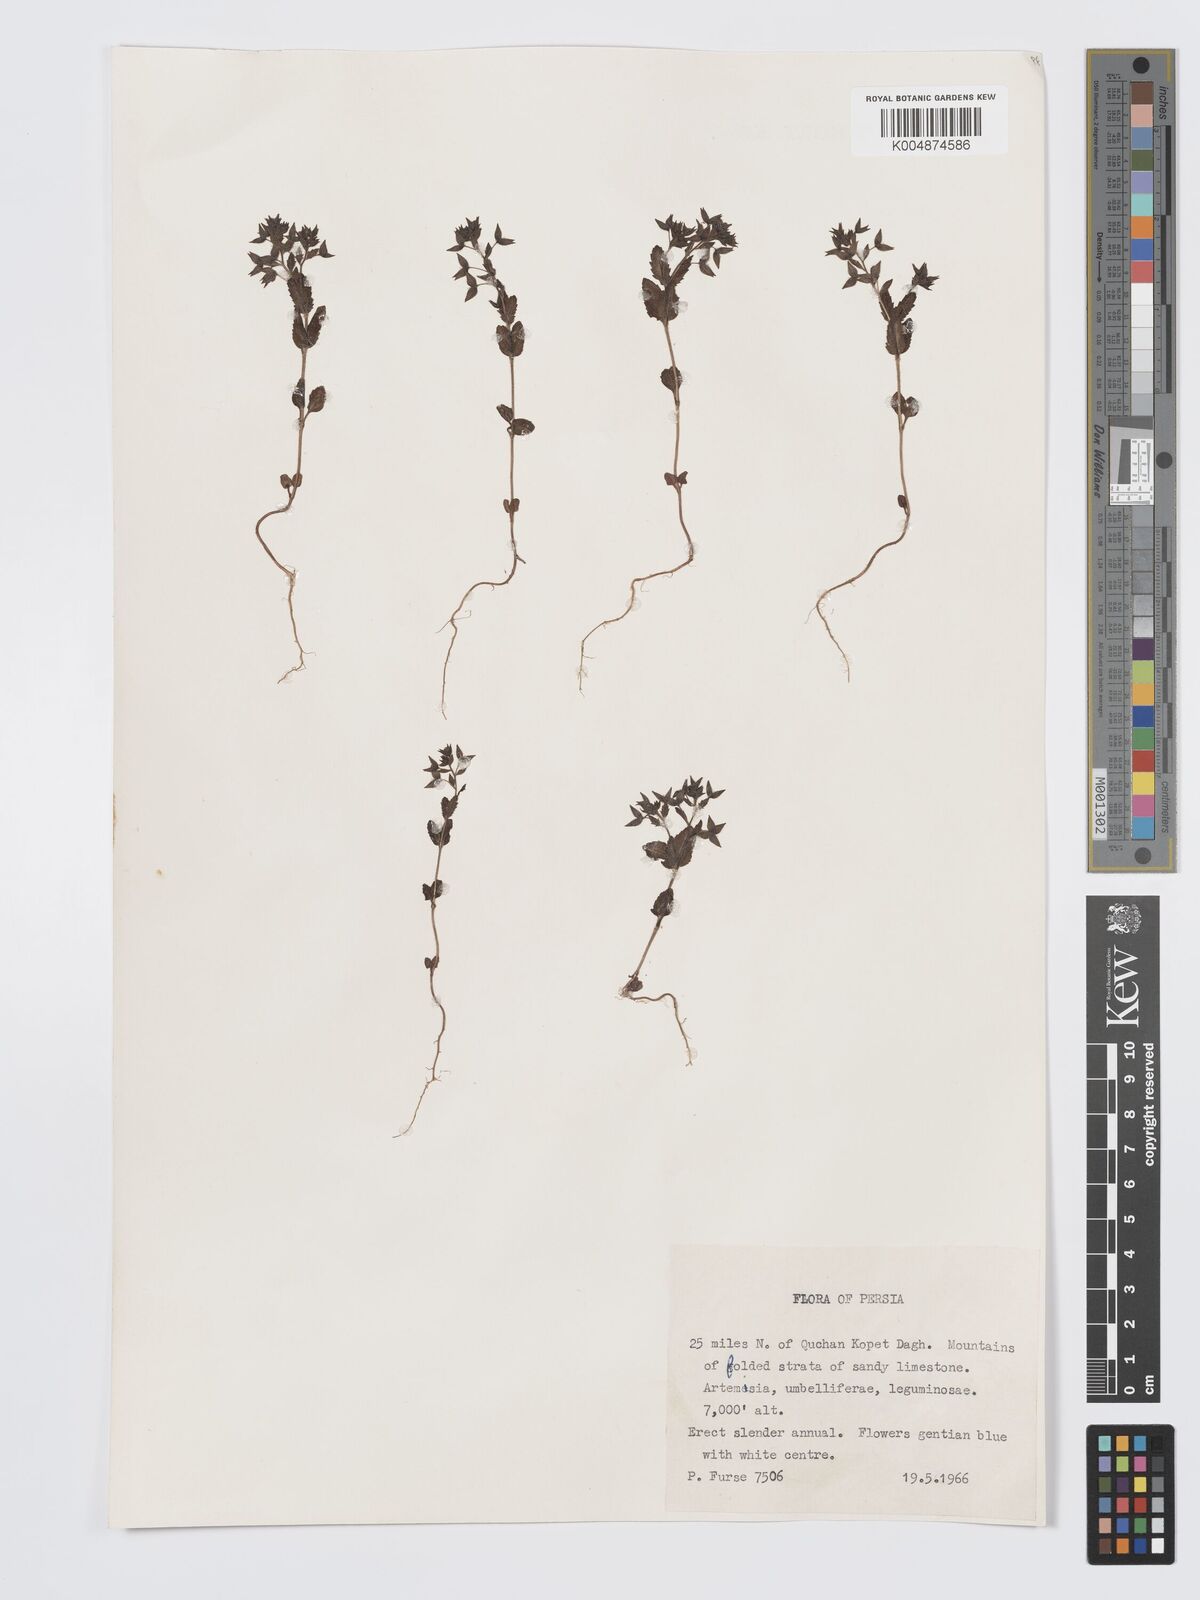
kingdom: Plantae
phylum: Tracheophyta
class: Magnoliopsida
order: Lamiales
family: Plantaginaceae
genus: Veronica
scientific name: Veronica
